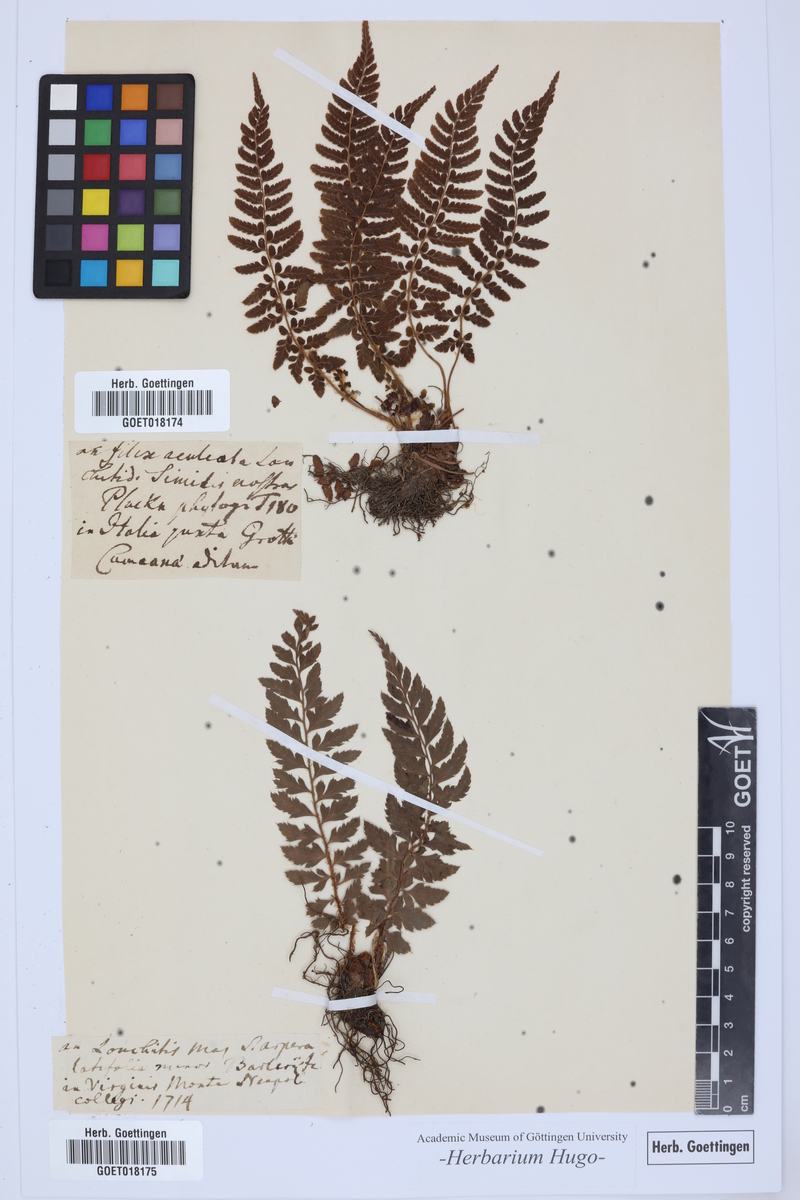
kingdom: Plantae
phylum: Tracheophyta
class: Polypodiopsida
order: Polypodiales
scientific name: Polypodiales
